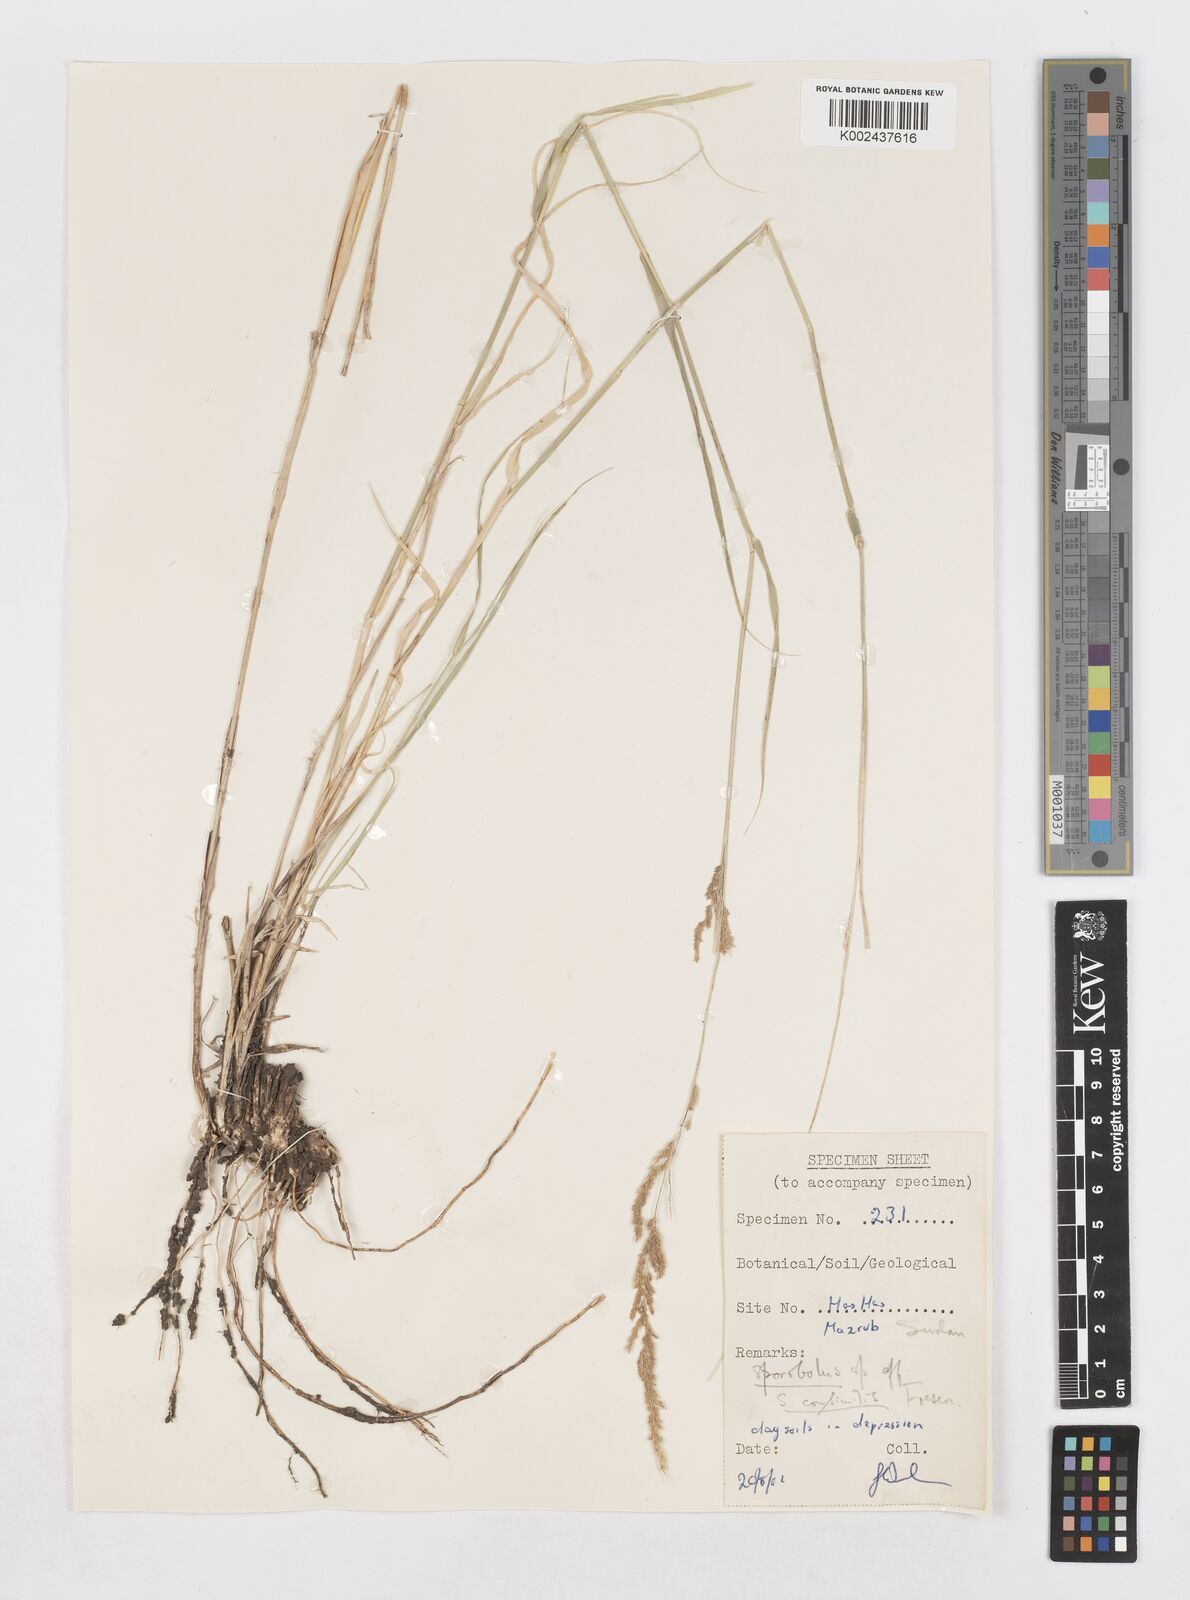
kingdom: Plantae
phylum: Tracheophyta
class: Liliopsida
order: Poales
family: Poaceae
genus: Sporobolus
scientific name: Sporobolus helvolus
